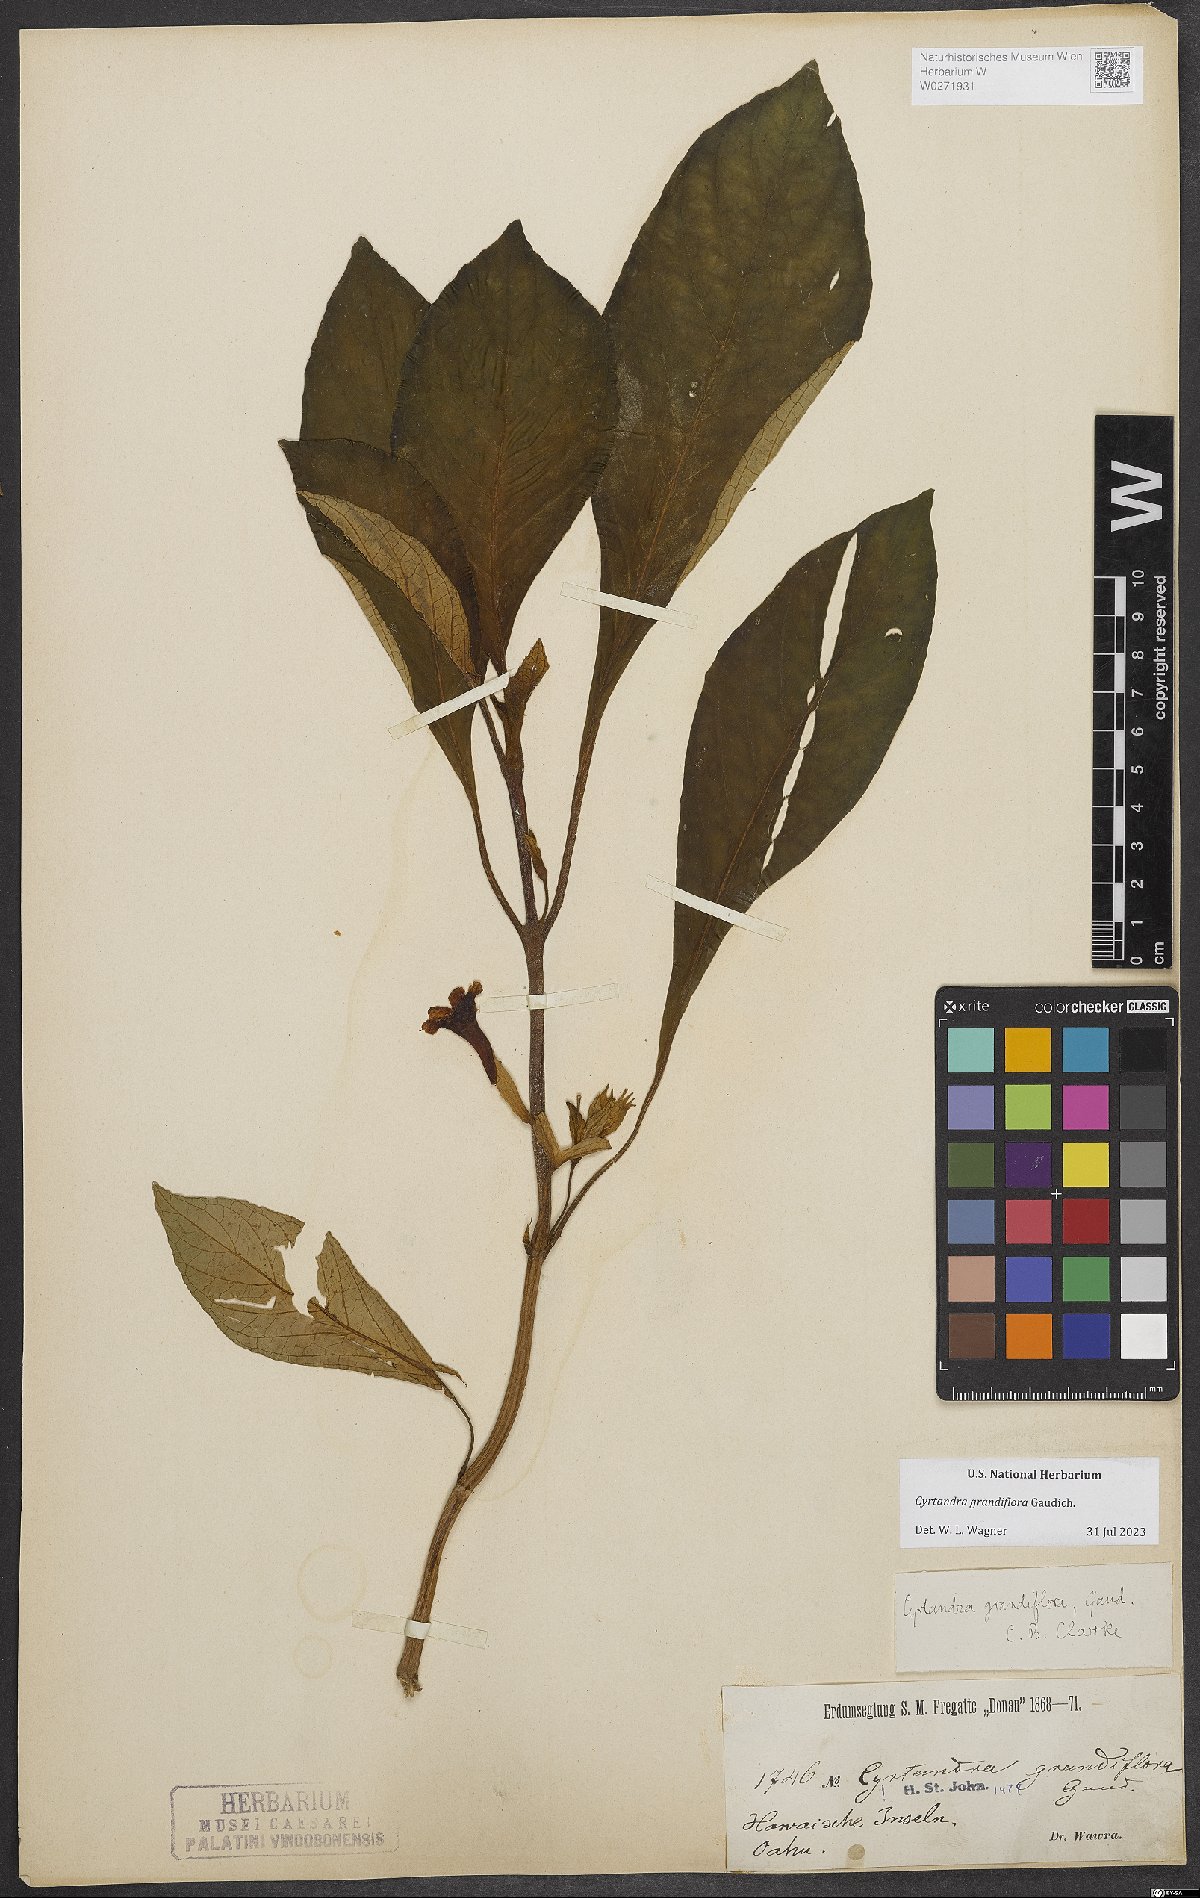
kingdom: Plantae
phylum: Tracheophyta
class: Magnoliopsida
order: Lamiales
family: Gesneriaceae
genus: Cyrtandra
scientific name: Cyrtandra grandiflora
